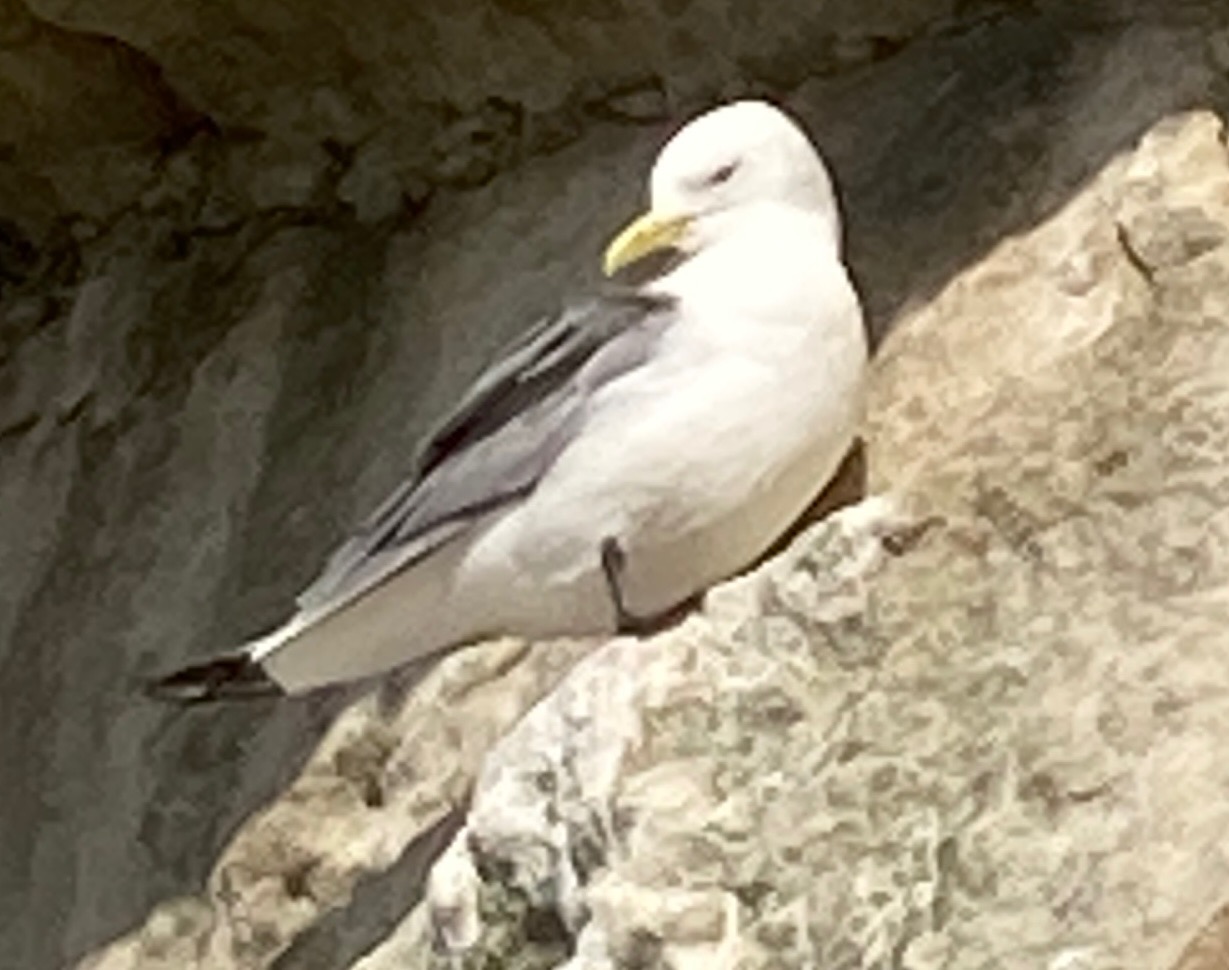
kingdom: Animalia
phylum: Chordata
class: Aves
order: Charadriiformes
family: Laridae
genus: Rissa
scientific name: Rissa tridactyla
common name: Ride
